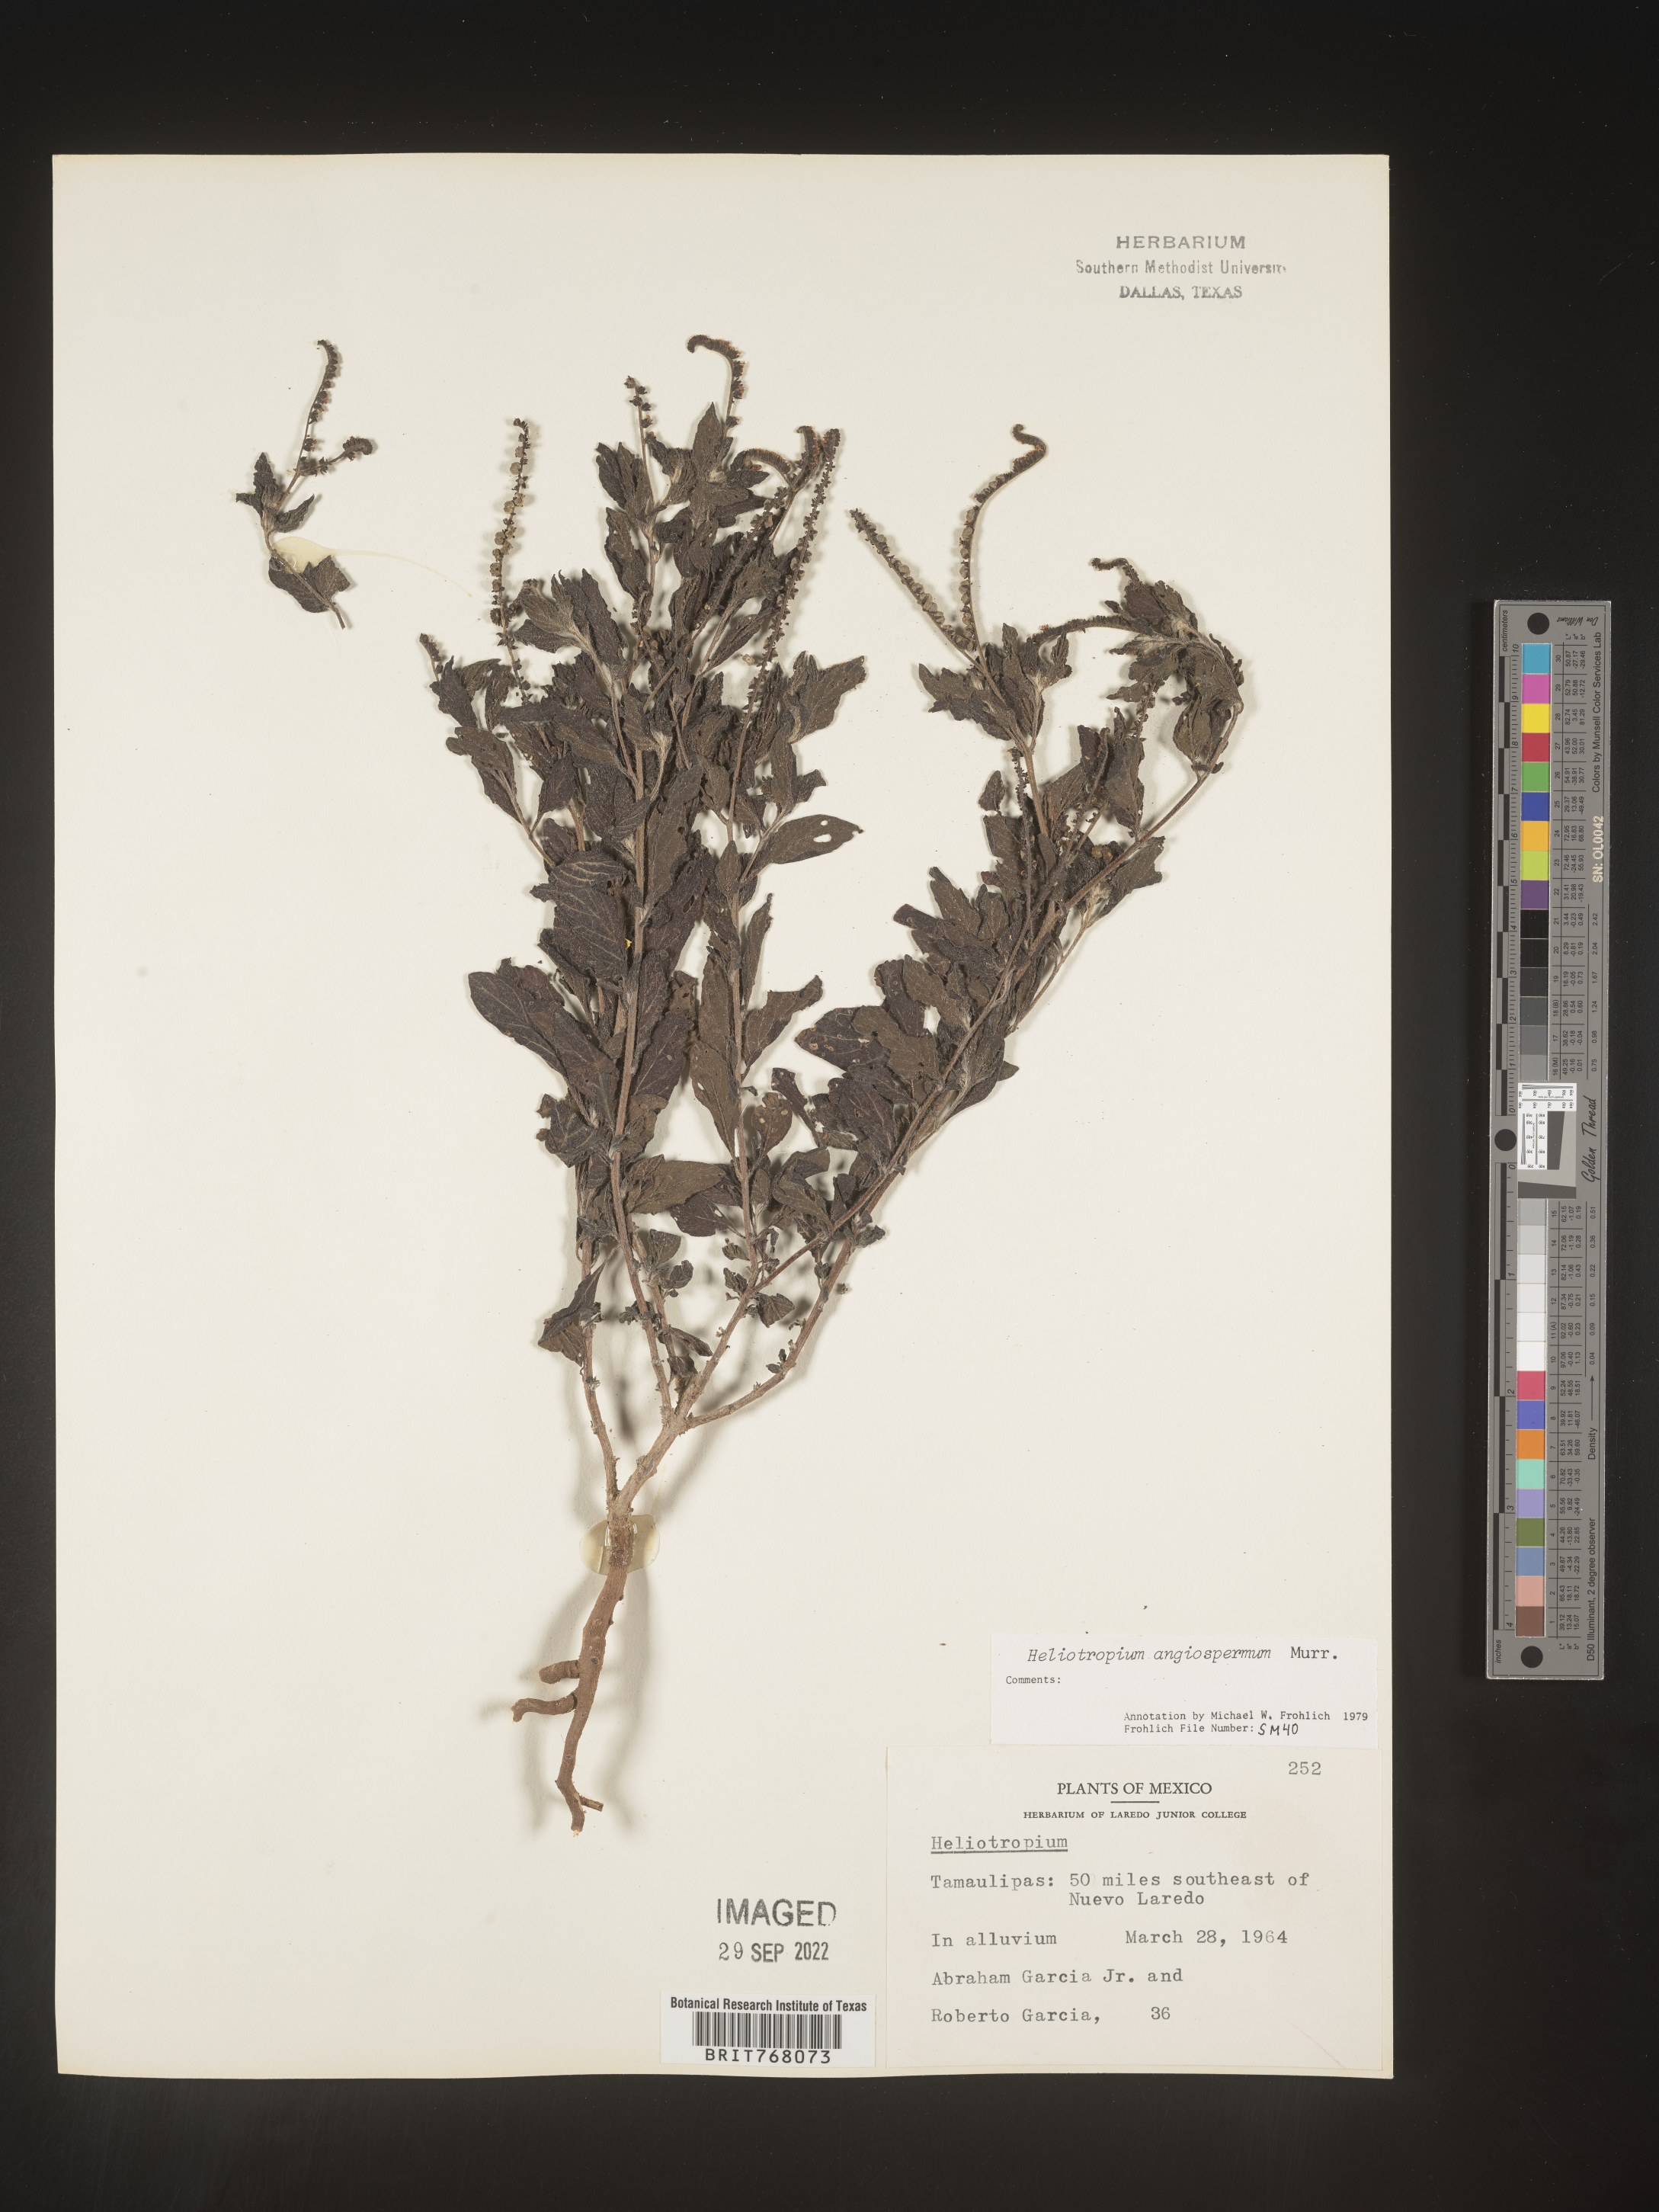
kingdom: Plantae
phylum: Tracheophyta
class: Magnoliopsida
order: Boraginales
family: Heliotropiaceae
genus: Heliotropium
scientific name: Heliotropium
